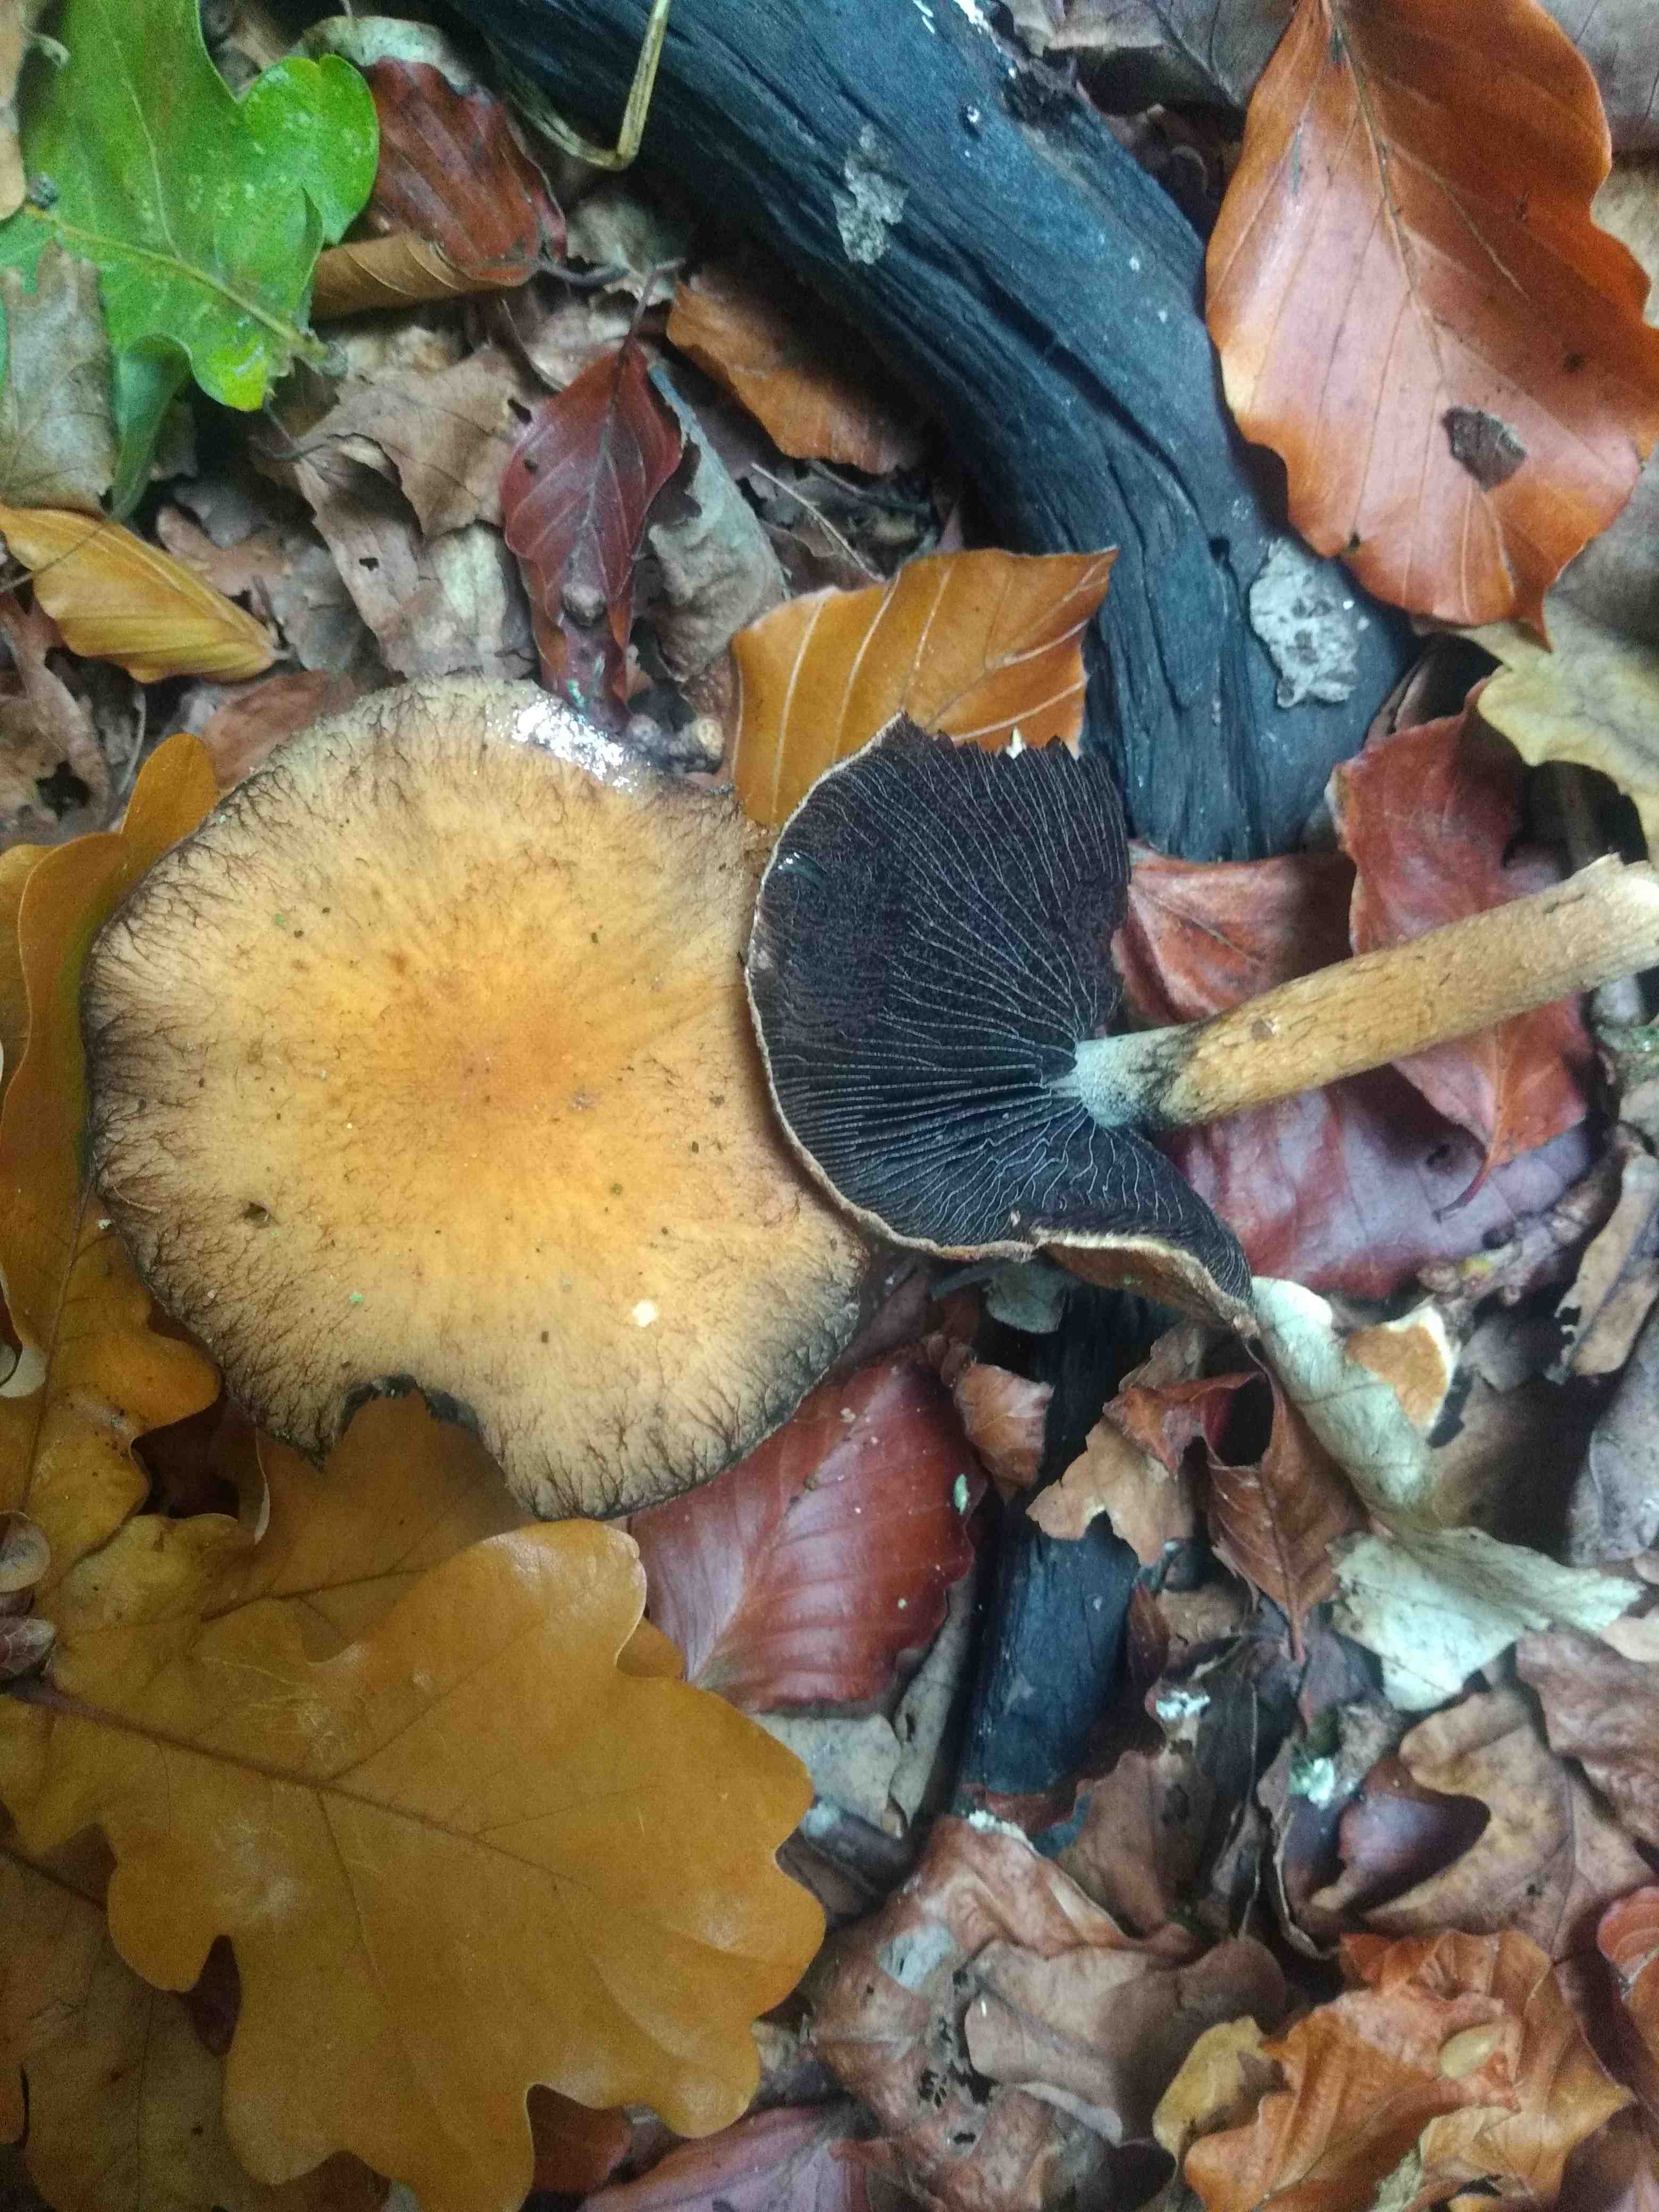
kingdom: Fungi
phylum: Basidiomycota
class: Agaricomycetes
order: Agaricales
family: Psathyrellaceae
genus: Lacrymaria
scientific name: Lacrymaria
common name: mørkhat
